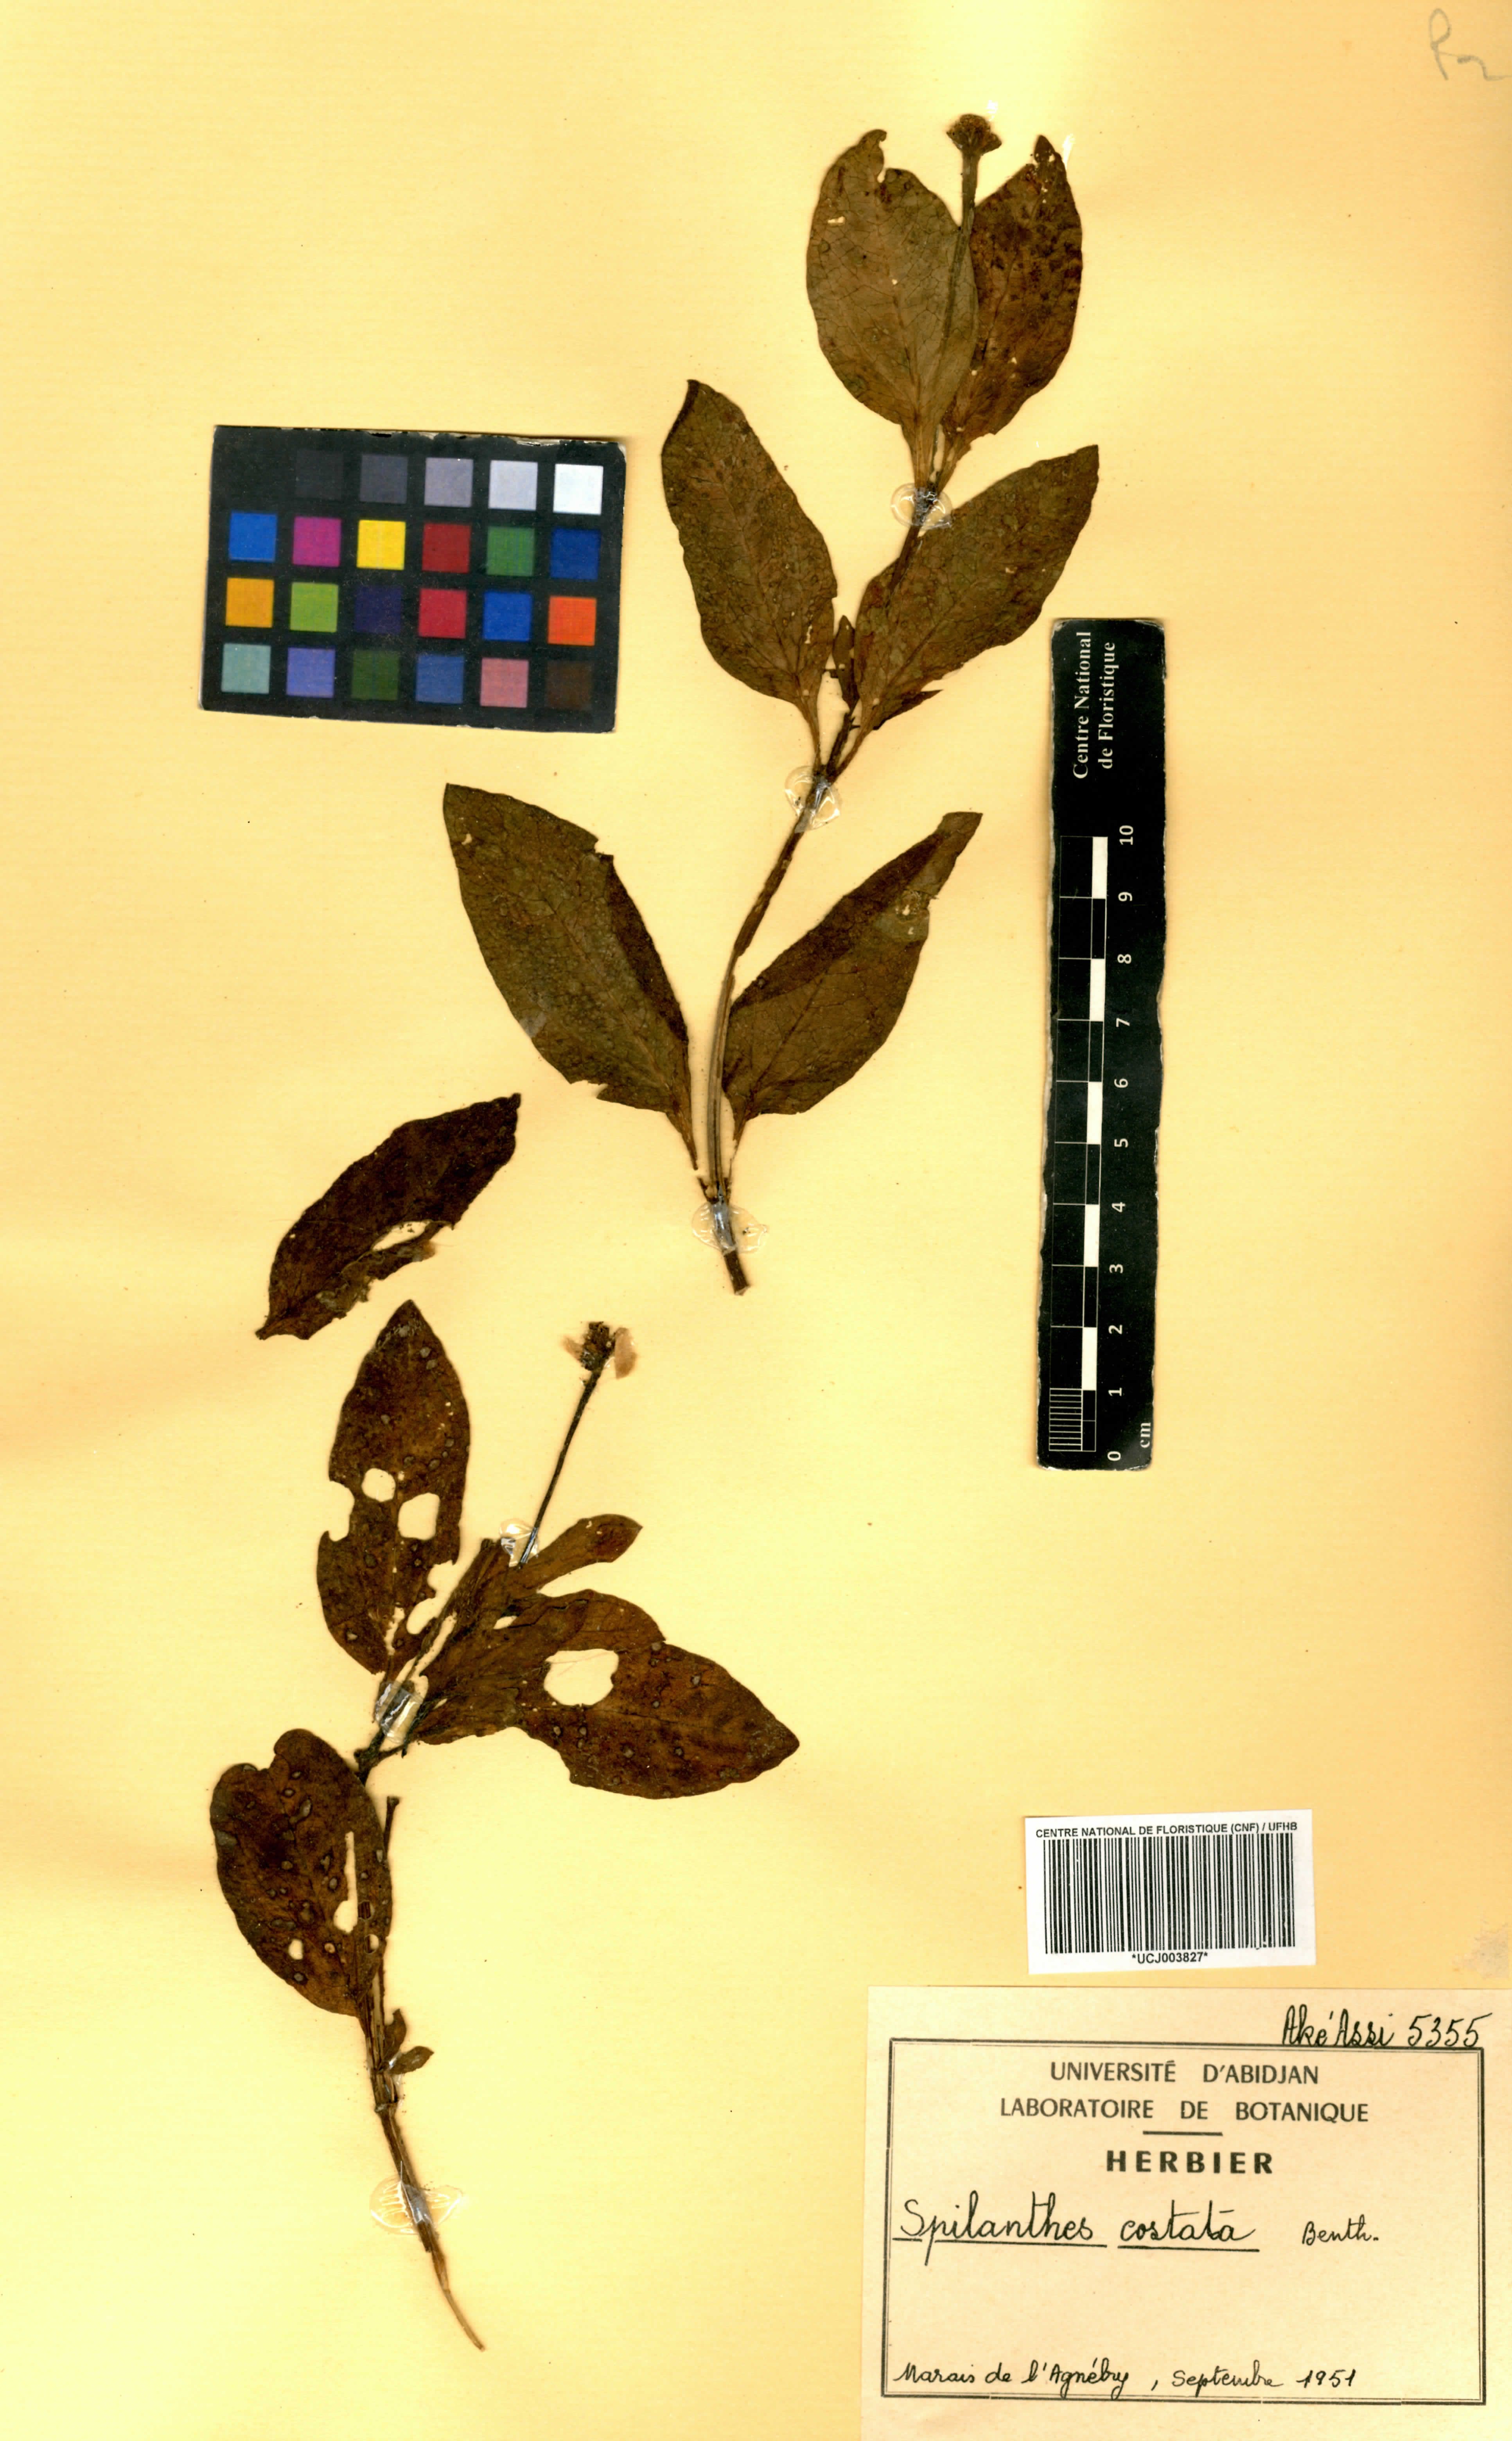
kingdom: Plantae
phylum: Tracheophyta
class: Magnoliopsida
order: Asterales
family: Asteraceae
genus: Spilanthes
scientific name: Spilanthes costata
